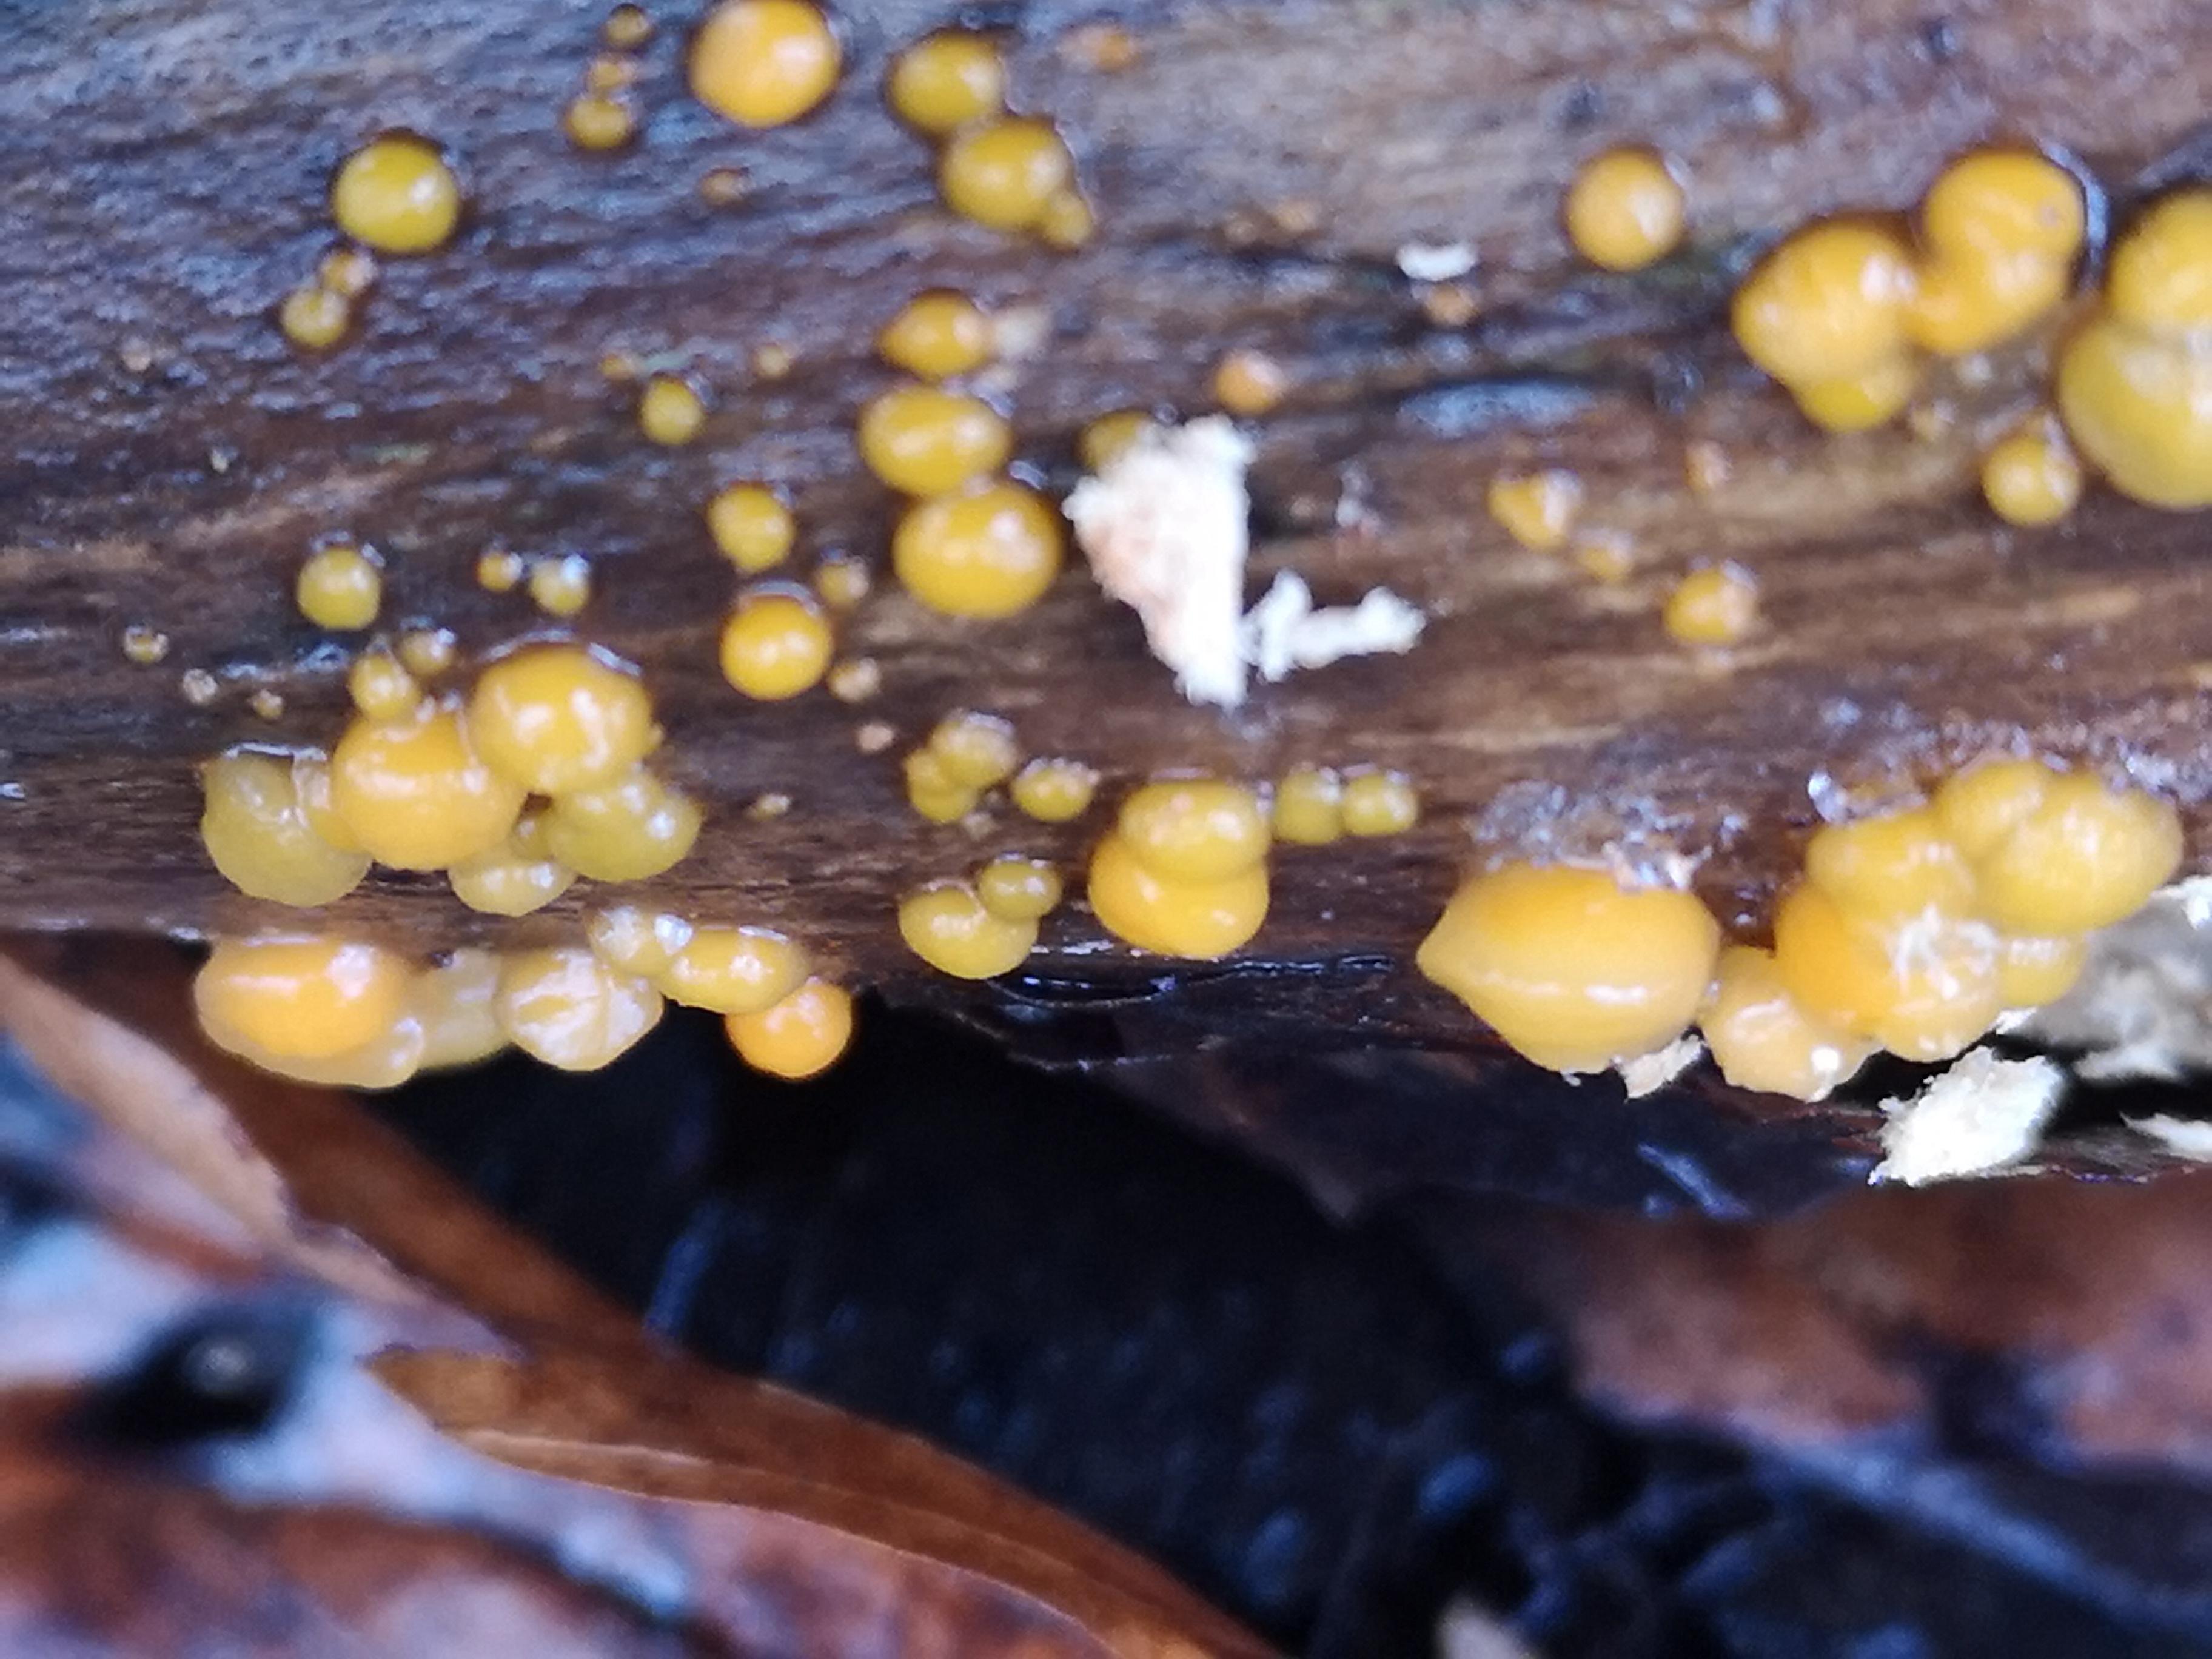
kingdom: Fungi
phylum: Basidiomycota
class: Dacrymycetes
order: Dacrymycetales
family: Dacrymycetaceae
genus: Dacrymyces
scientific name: Dacrymyces stillatus
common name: almindelig tåresvamp
